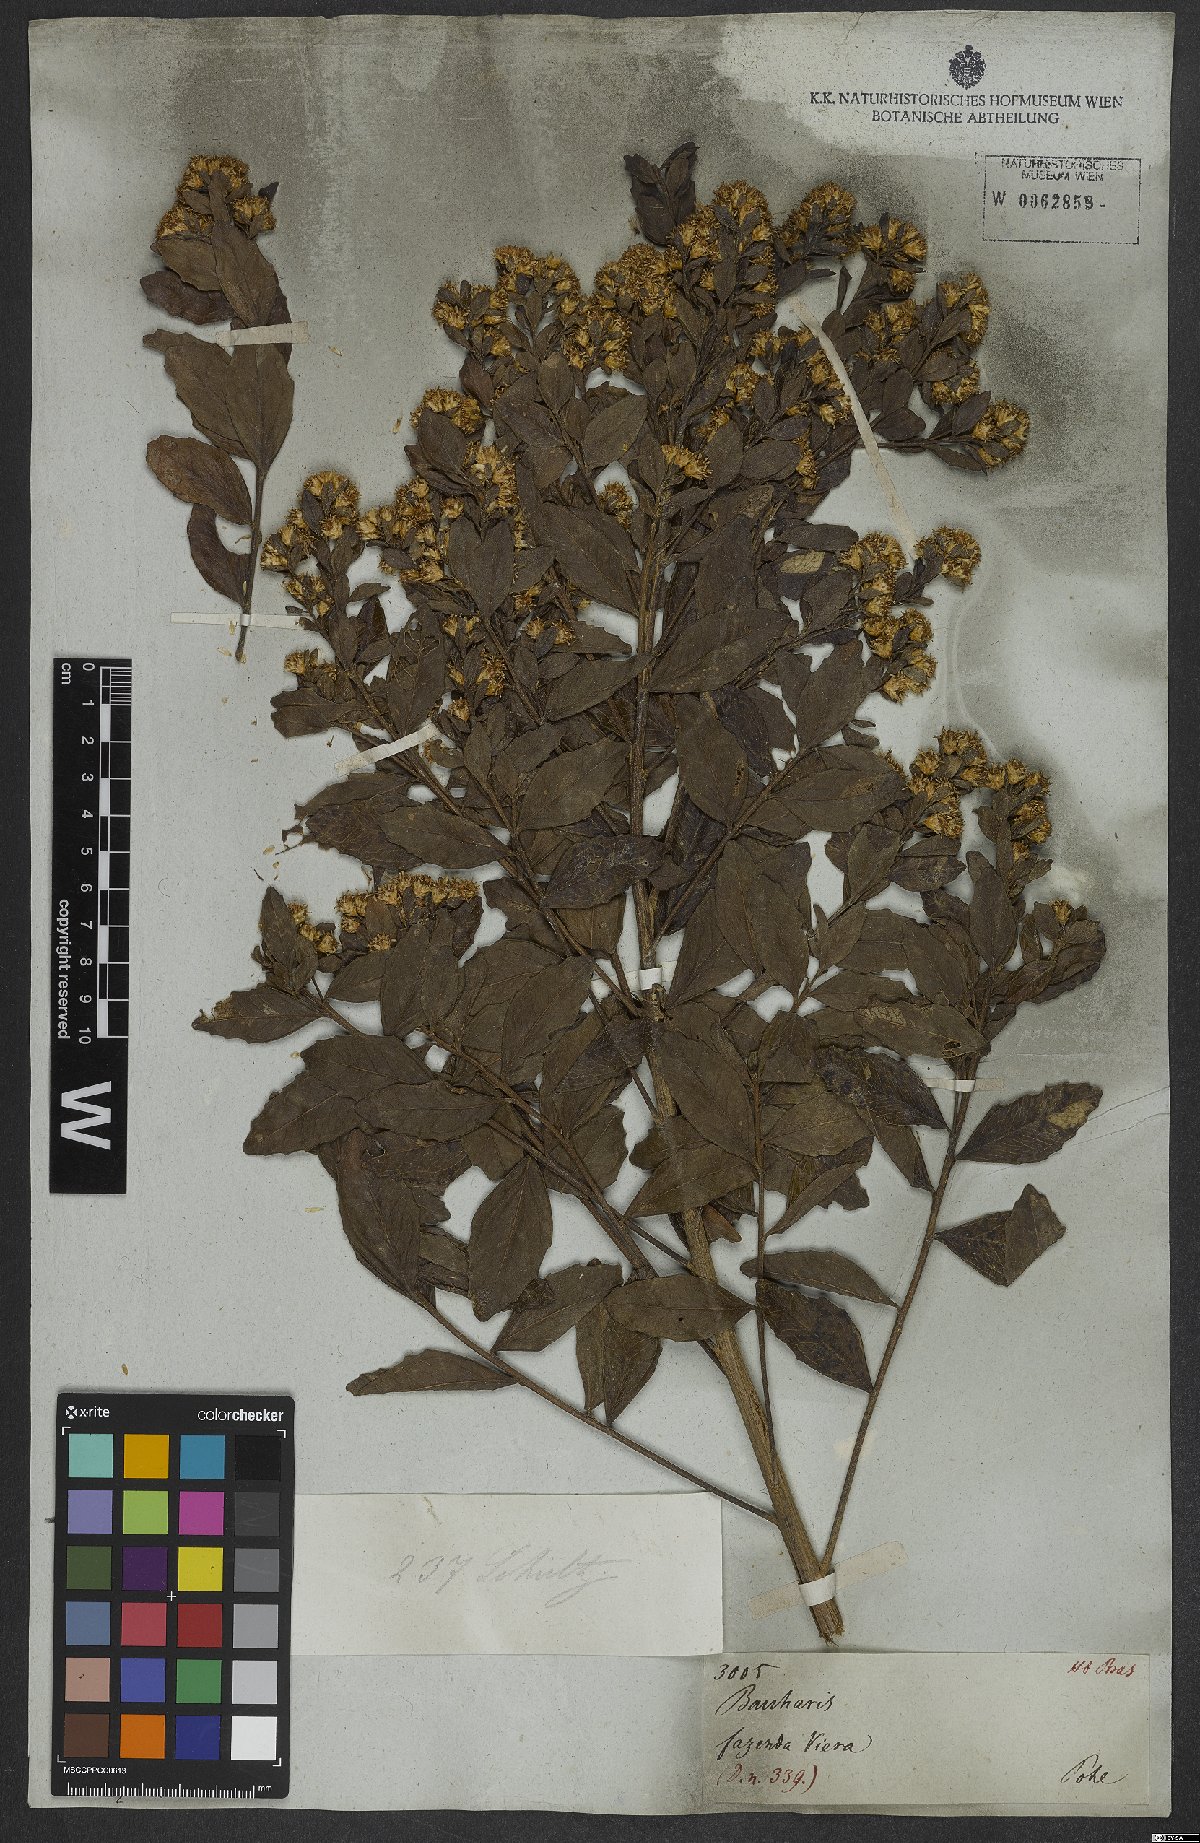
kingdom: Plantae
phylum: Tracheophyta
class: Magnoliopsida
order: Asterales
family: Asteraceae
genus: Baccharis
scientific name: Baccharis
